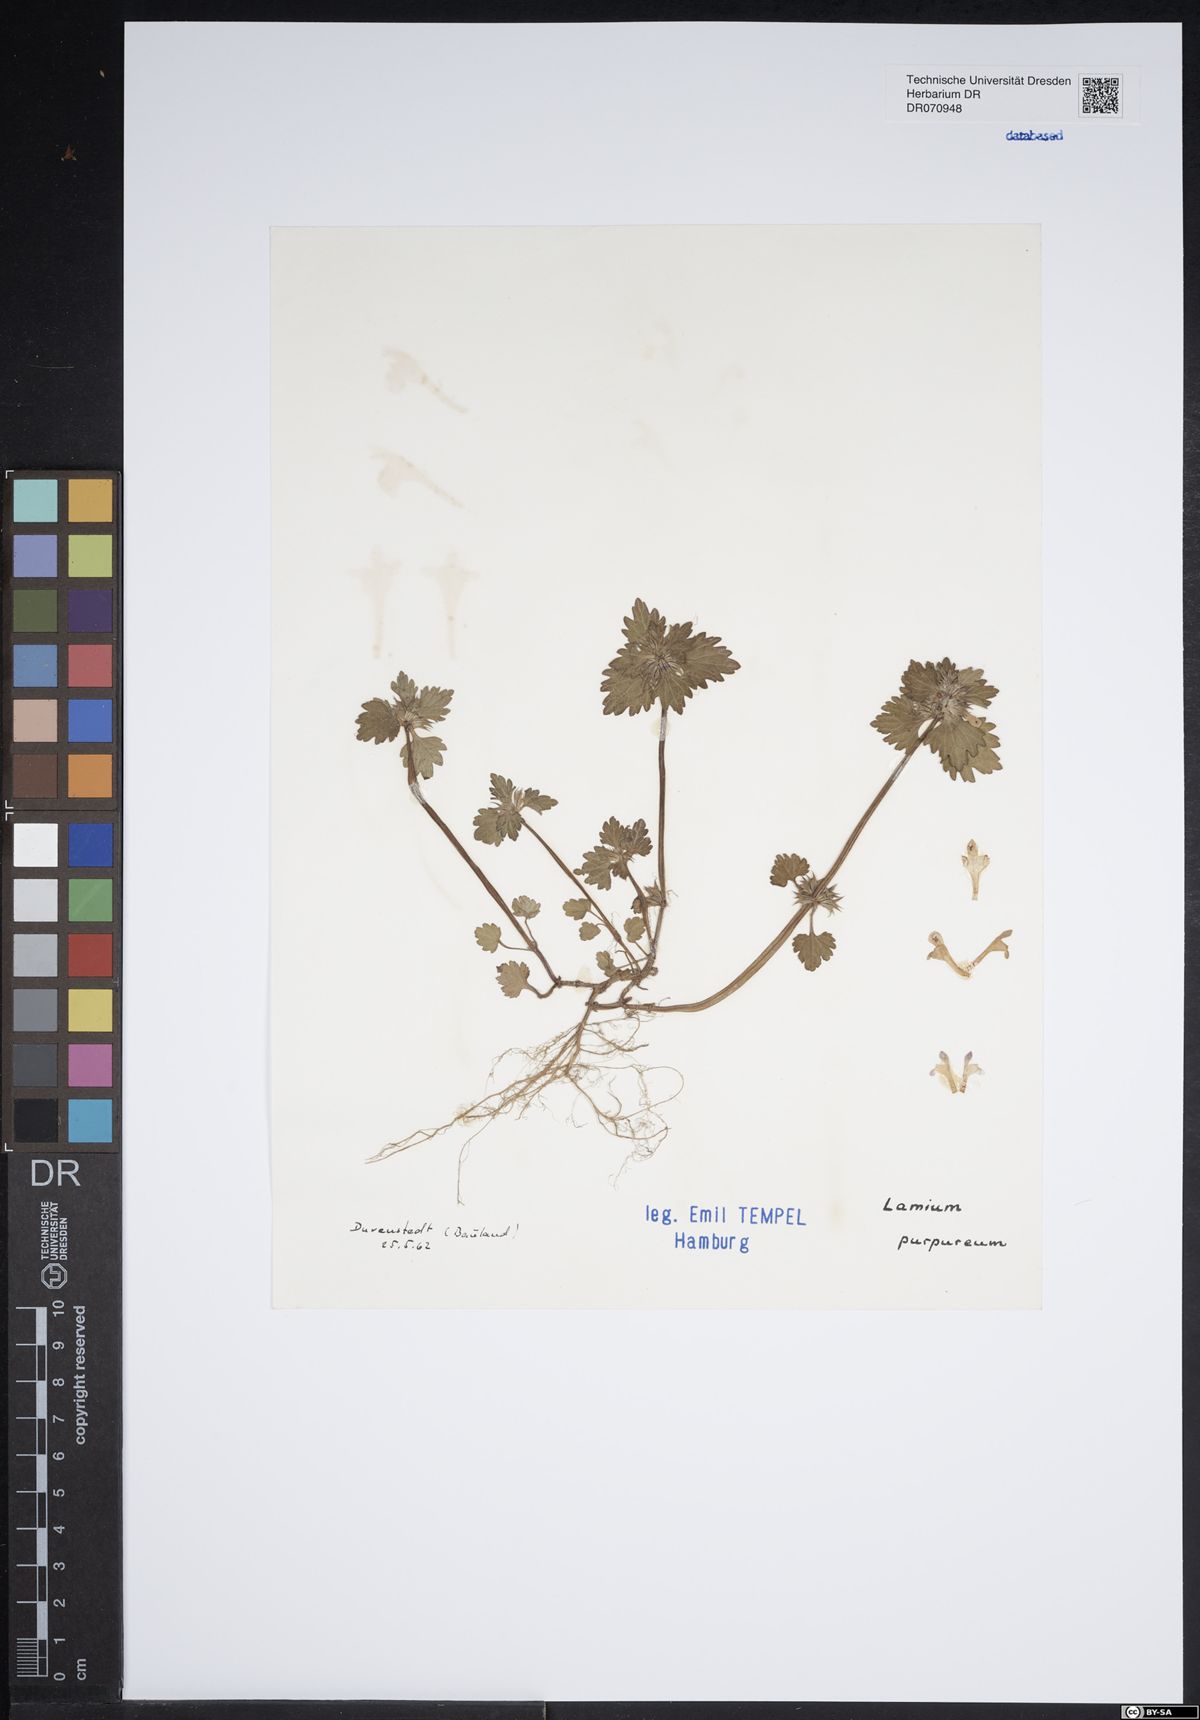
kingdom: Plantae
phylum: Tracheophyta
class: Magnoliopsida
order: Lamiales
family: Lamiaceae
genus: Lamium
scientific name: Lamium purpureum
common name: Red dead-nettle
